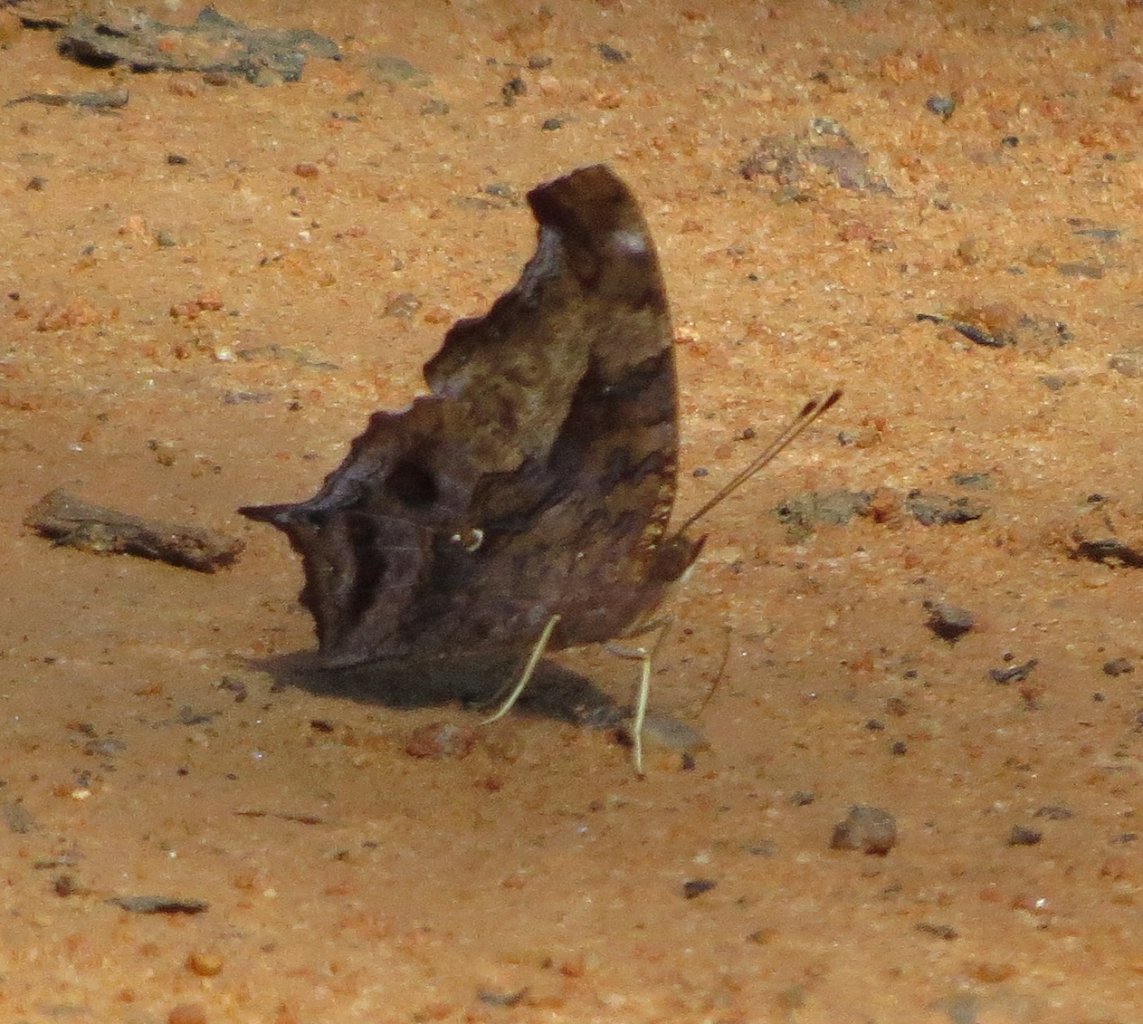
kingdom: Animalia
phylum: Arthropoda
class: Insecta
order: Lepidoptera
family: Nymphalidae
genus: Polygonia
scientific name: Polygonia interrogationis
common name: Question Mark
